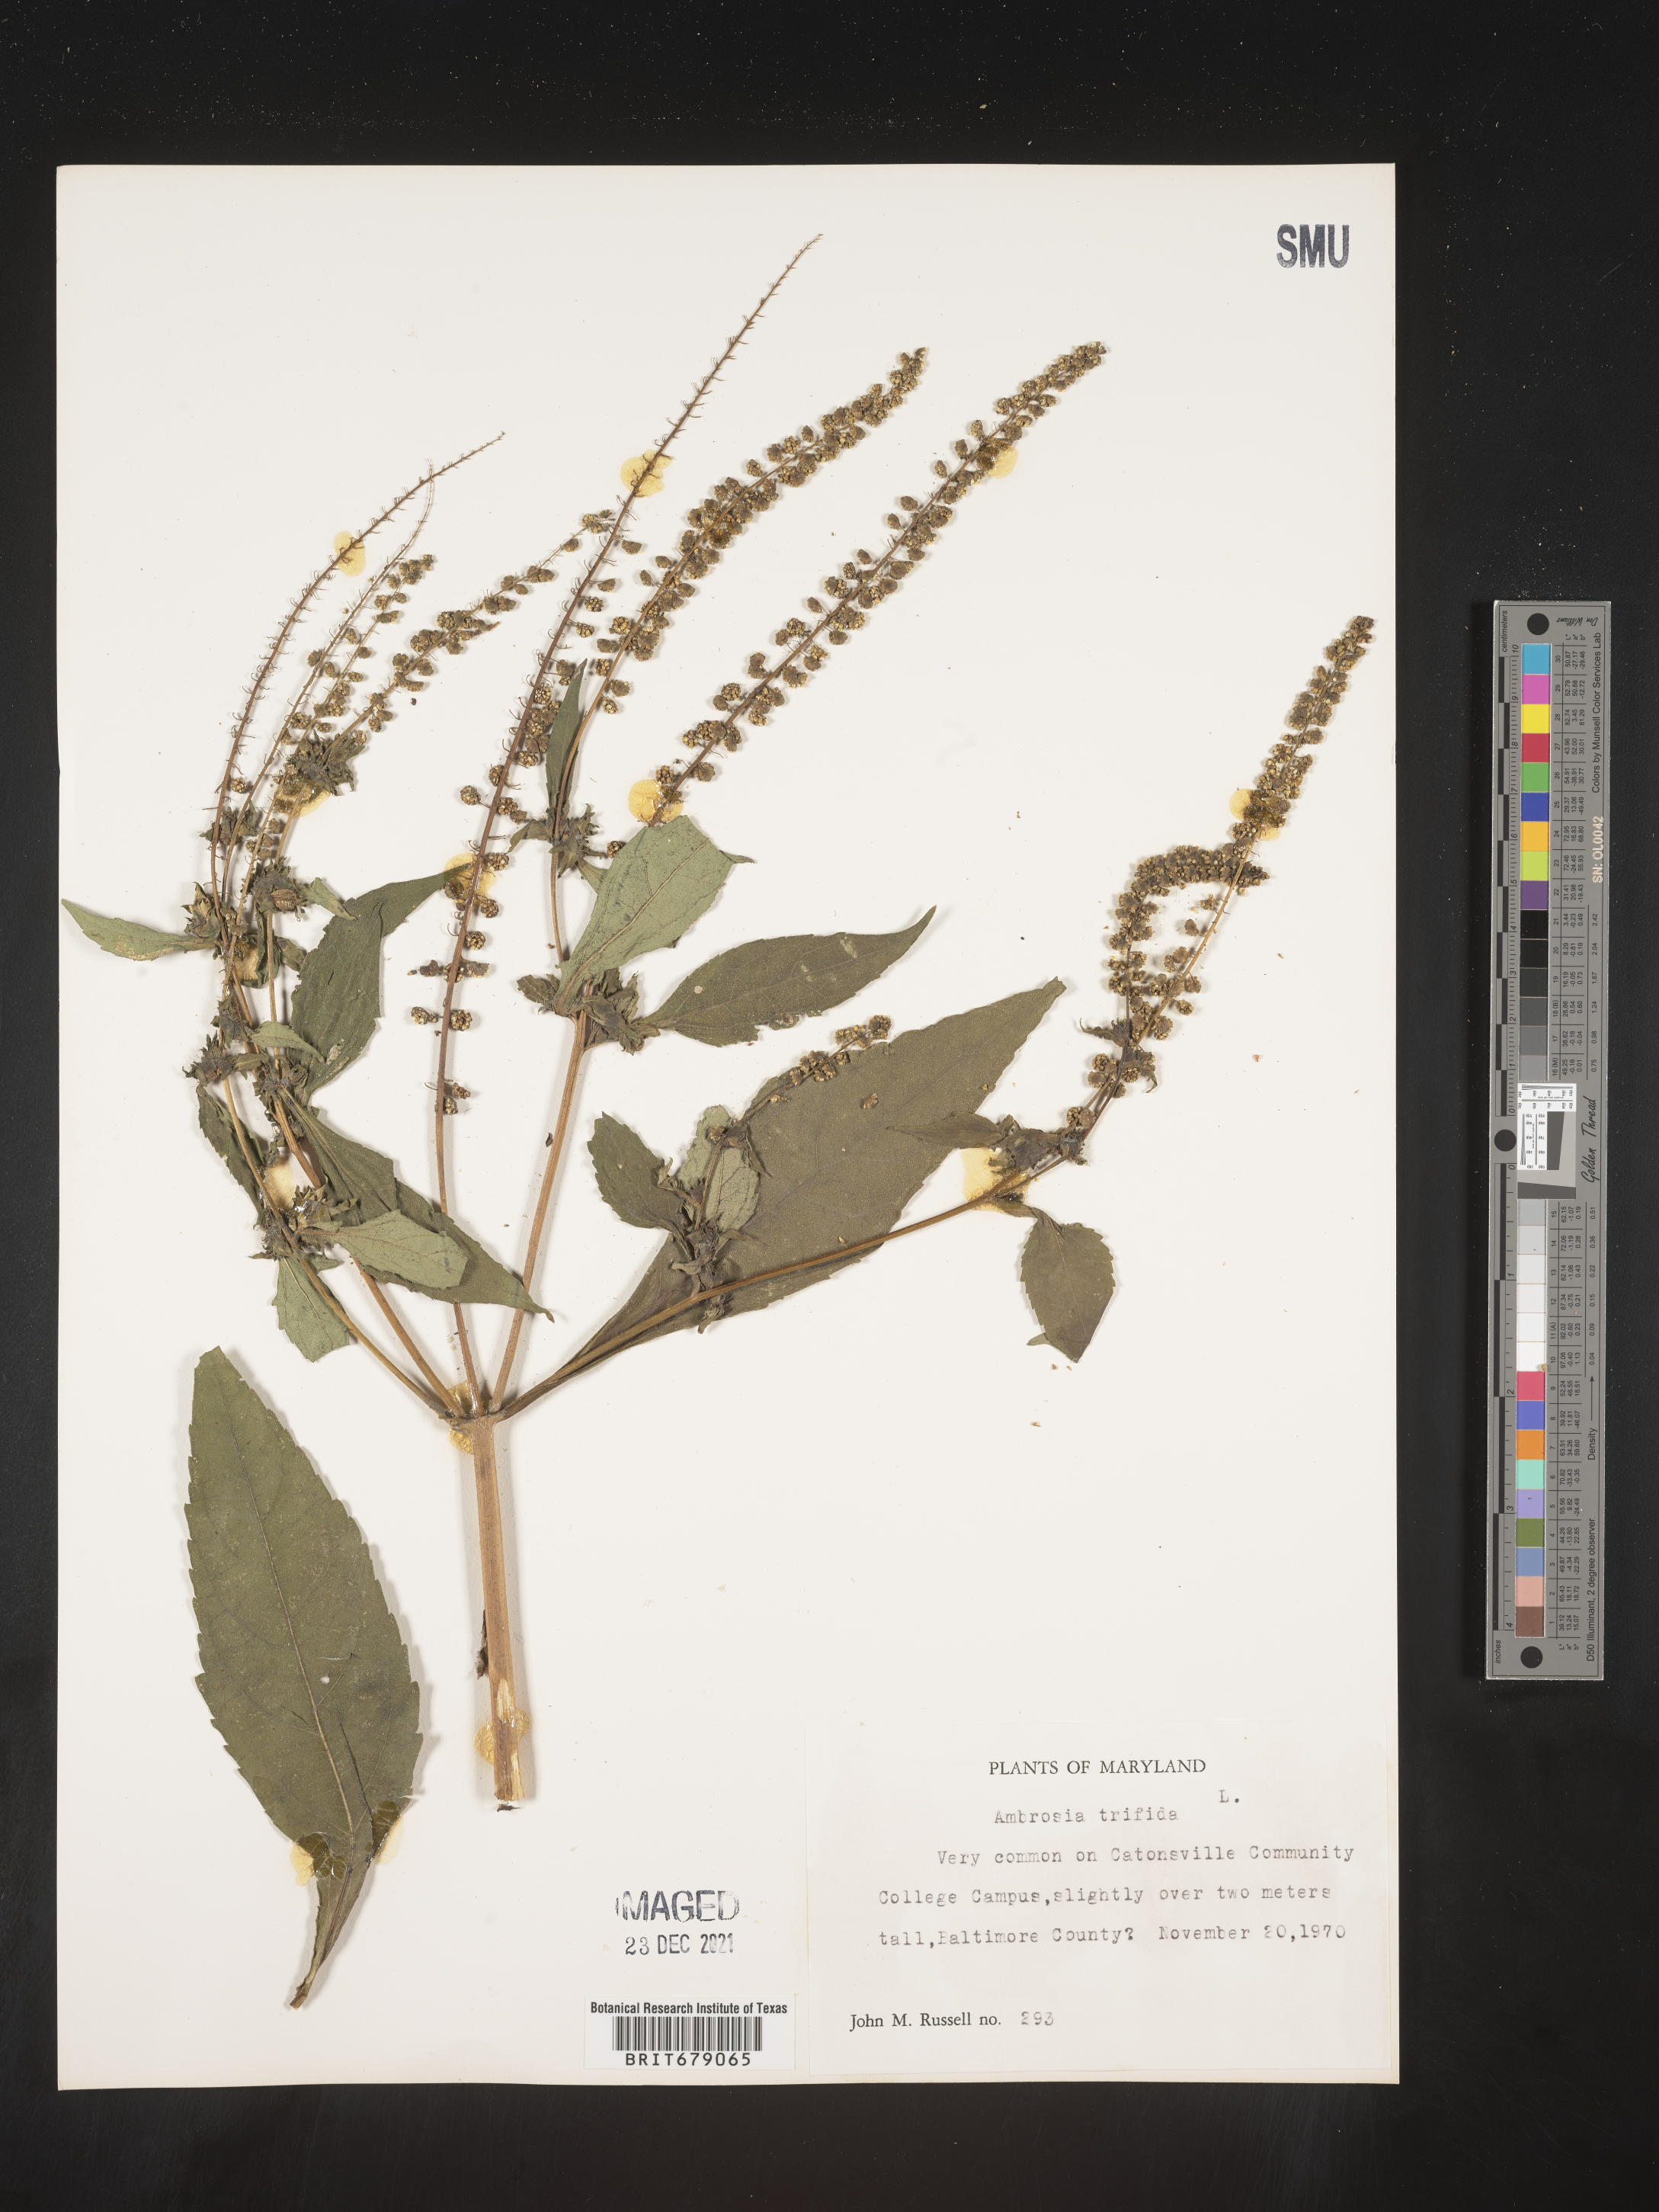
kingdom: Plantae
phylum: Tracheophyta
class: Magnoliopsida
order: Asterales
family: Asteraceae
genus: Ambrosia
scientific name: Ambrosia trifida
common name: Giant ragweed
